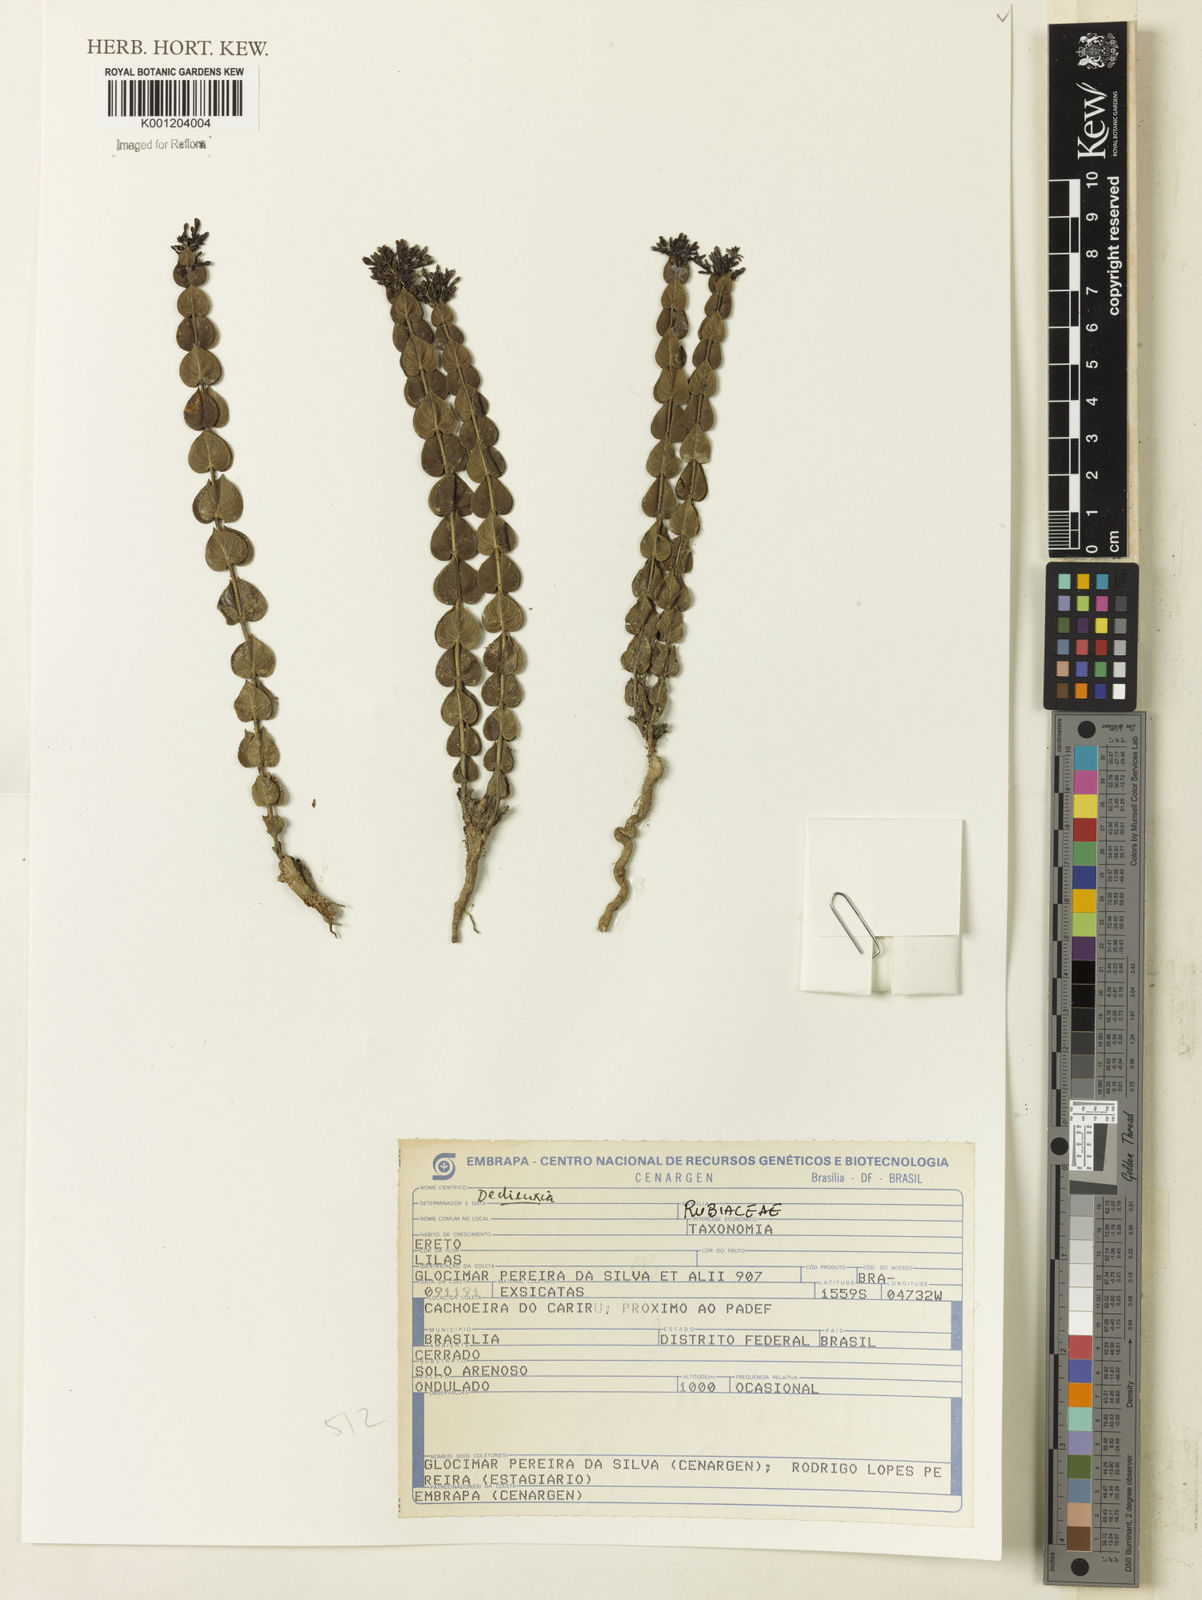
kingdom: Plantae
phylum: Tracheophyta
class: Magnoliopsida
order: Gentianales
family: Rubiaceae
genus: Declieuxia
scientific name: Declieuxia
